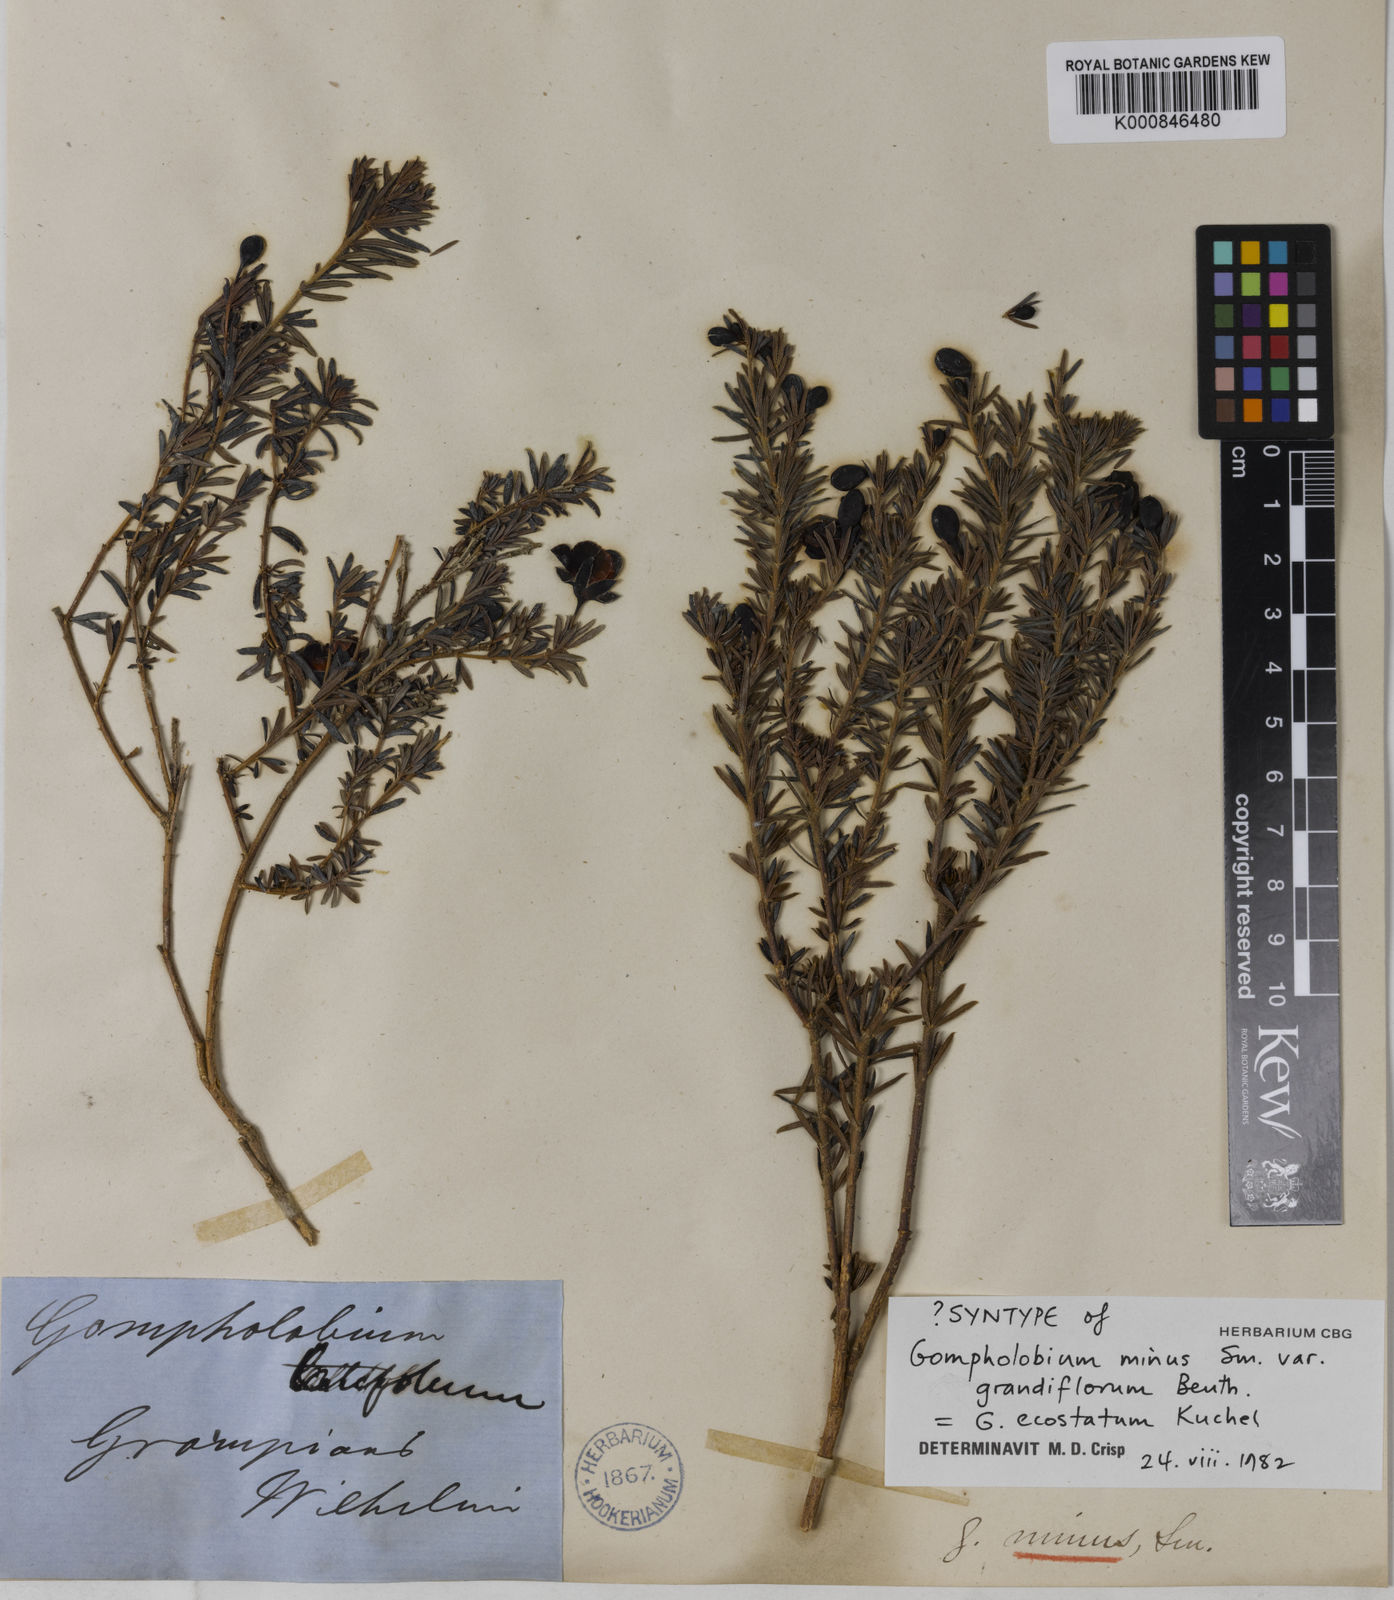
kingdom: Plantae
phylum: Tracheophyta
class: Magnoliopsida
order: Fabales
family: Fabaceae
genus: Gompholobium
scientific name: Gompholobium ecostatum
